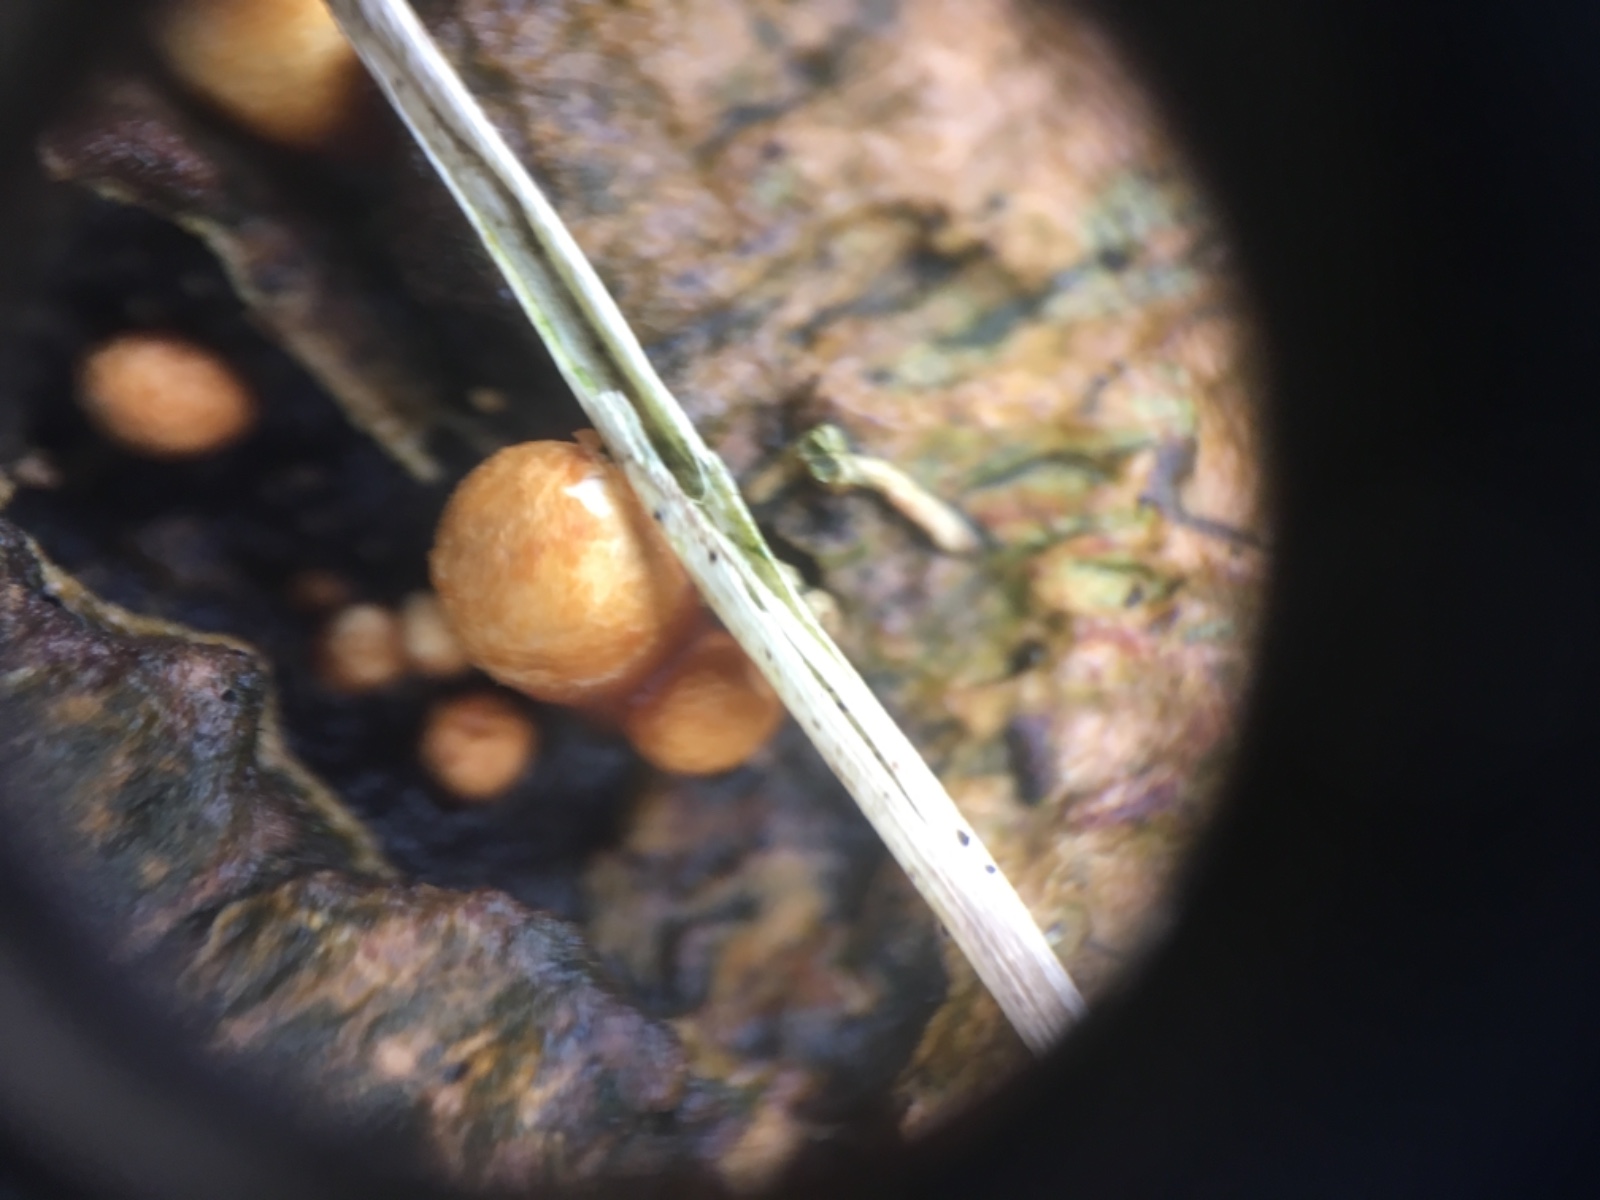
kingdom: Fungi
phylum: Basidiomycota
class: Agaricomycetes
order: Agaricales
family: Nidulariaceae
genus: Crucibulum
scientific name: Crucibulum crucibuliforme
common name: krukkesvamp
